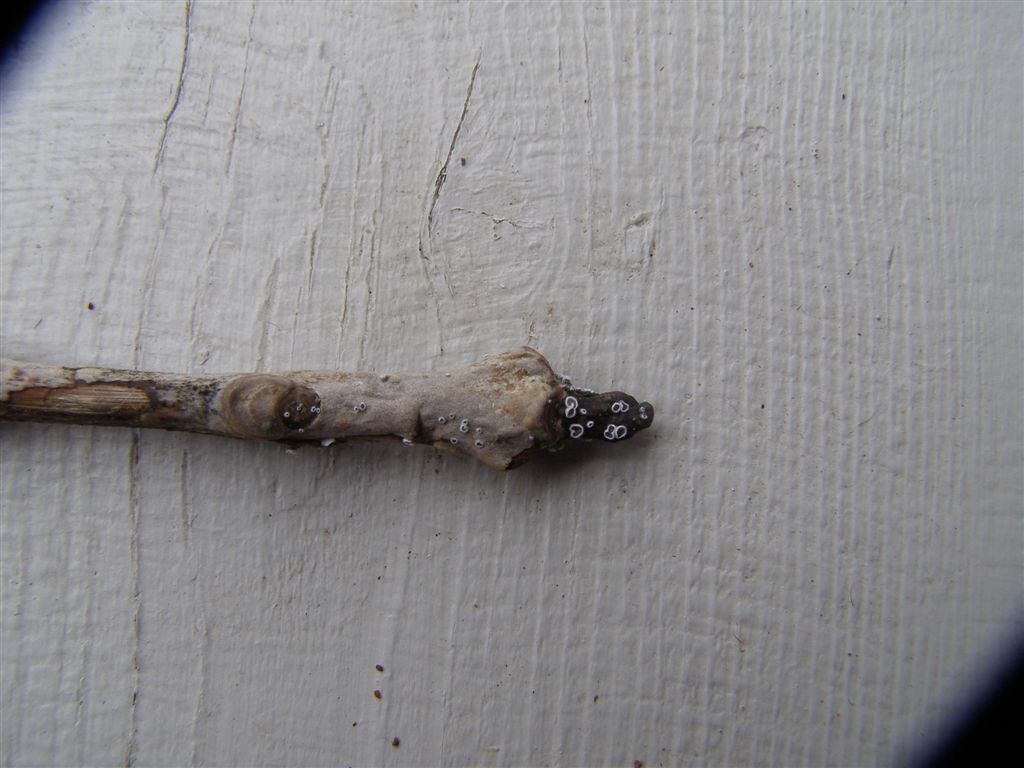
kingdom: Fungi
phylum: Basidiomycota
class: Agaricomycetes
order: Agaricales
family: Niaceae
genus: Lachnella
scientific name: Lachnella alboviolascens
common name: grå frynserede
